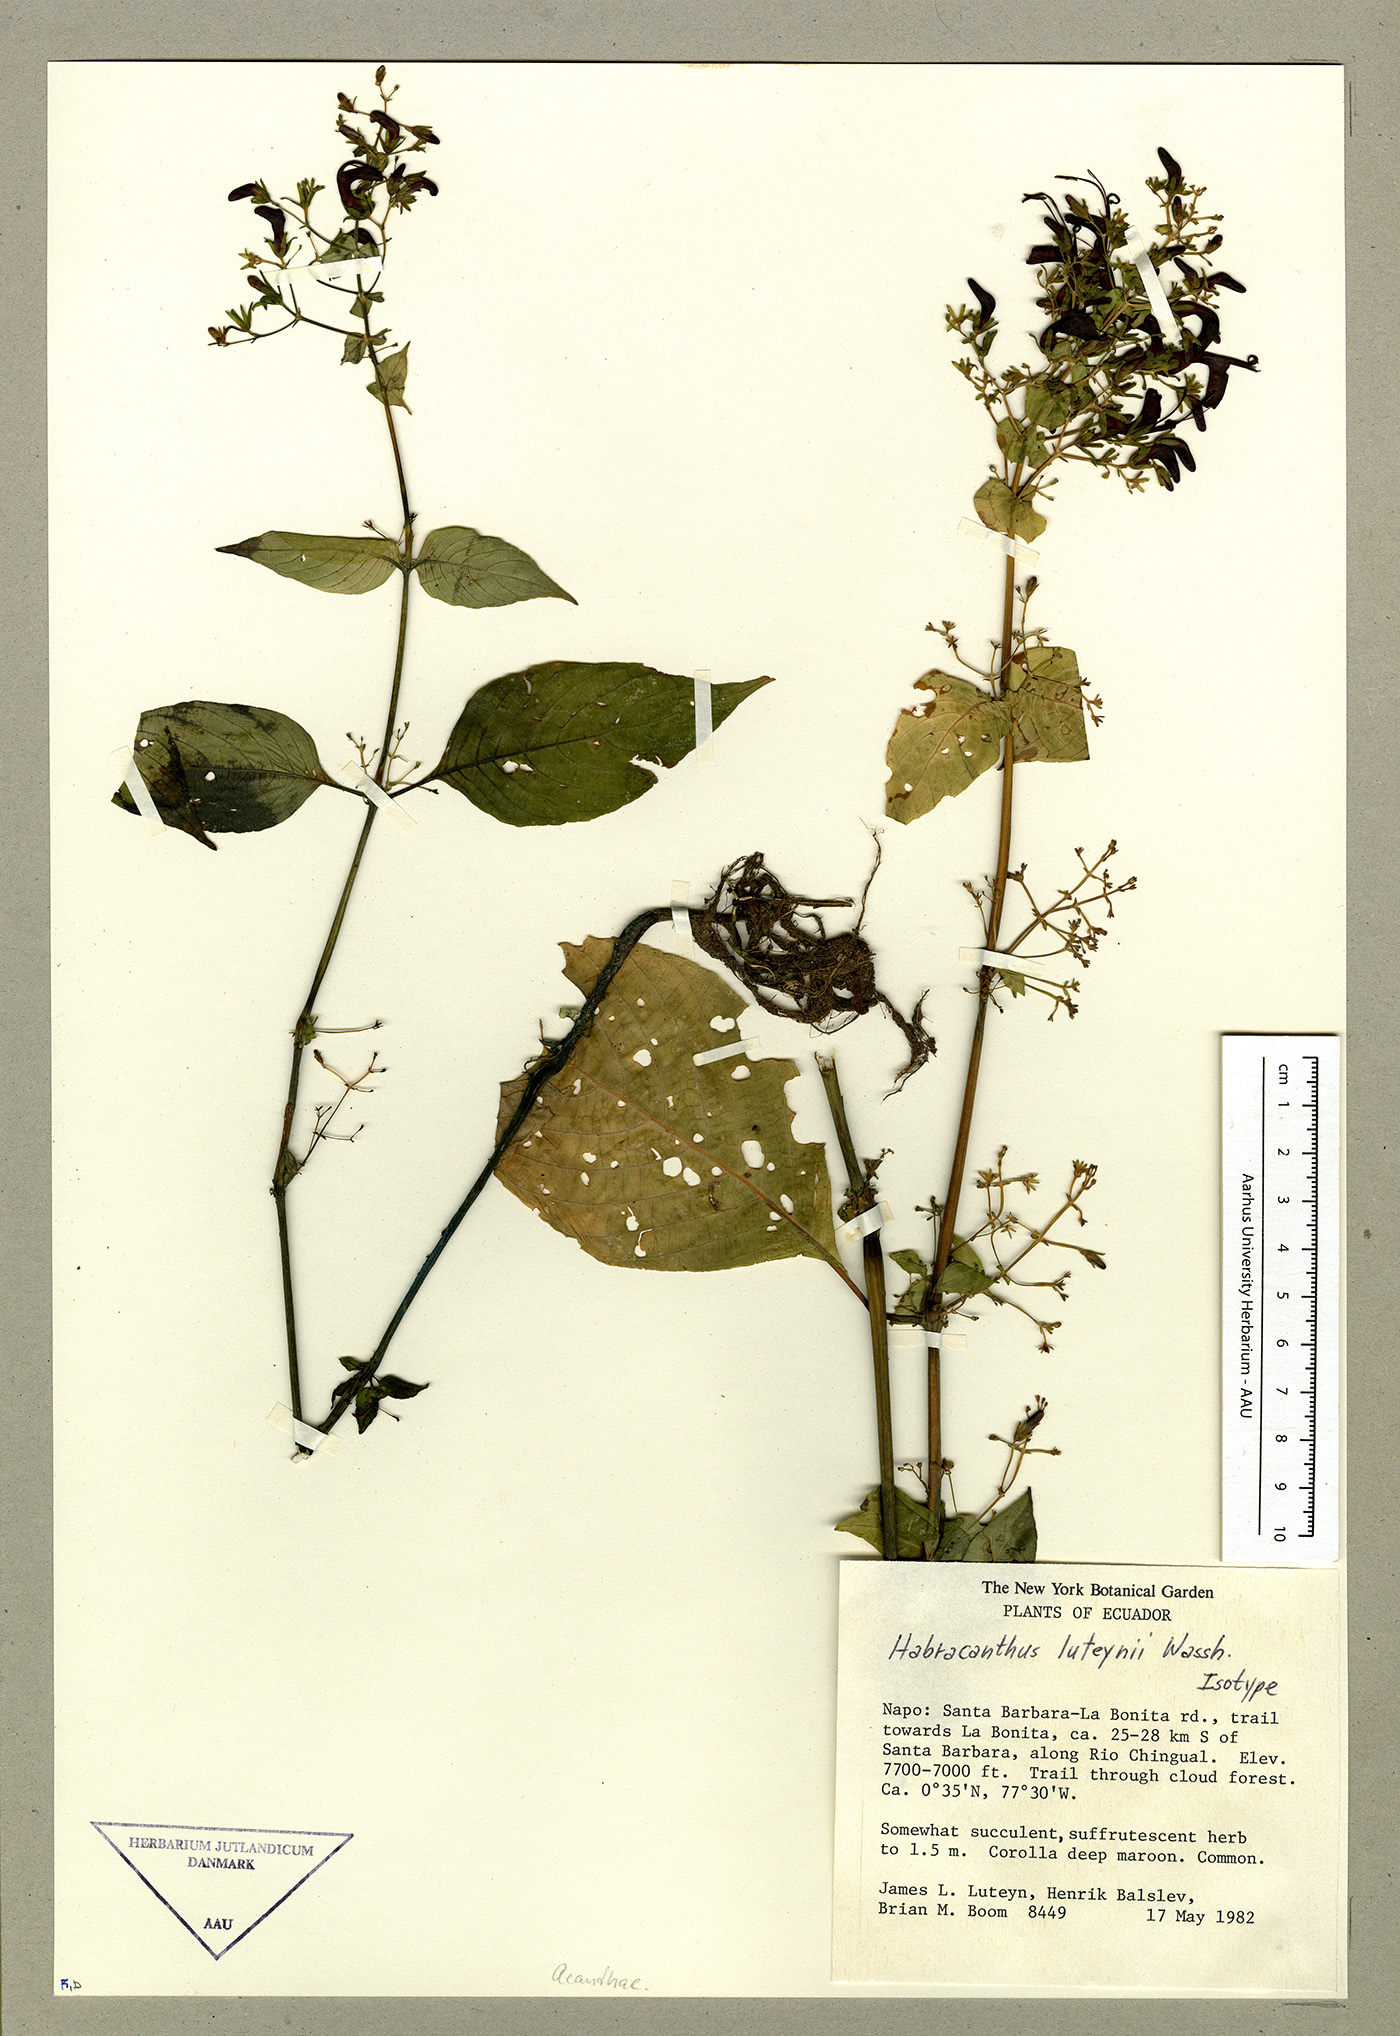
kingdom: Plantae
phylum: Tracheophyta
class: Magnoliopsida
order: Lamiales
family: Acanthaceae
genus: Stenostephanus
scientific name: Stenostephanus luteynii
